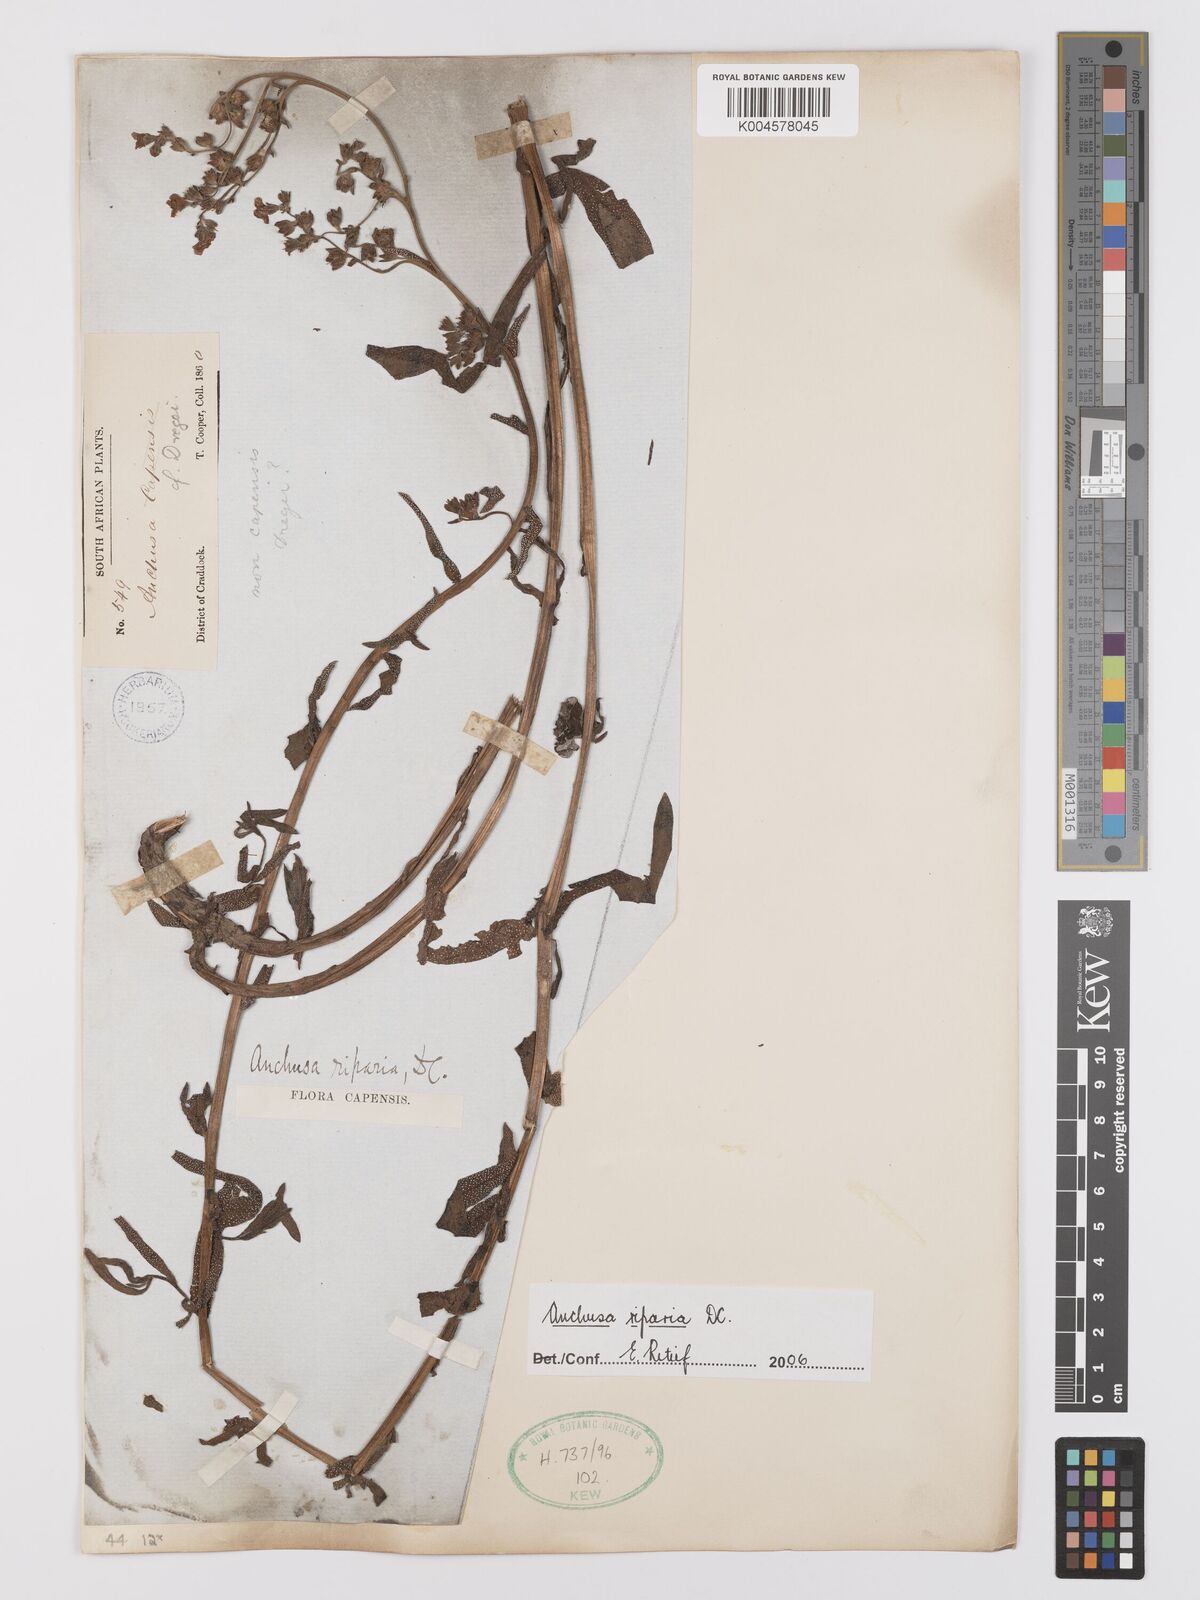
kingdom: Plantae
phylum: Tracheophyta
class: Magnoliopsida
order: Boraginales
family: Boraginaceae
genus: Anchusa
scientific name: Anchusa capensis
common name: Cape bugloss
